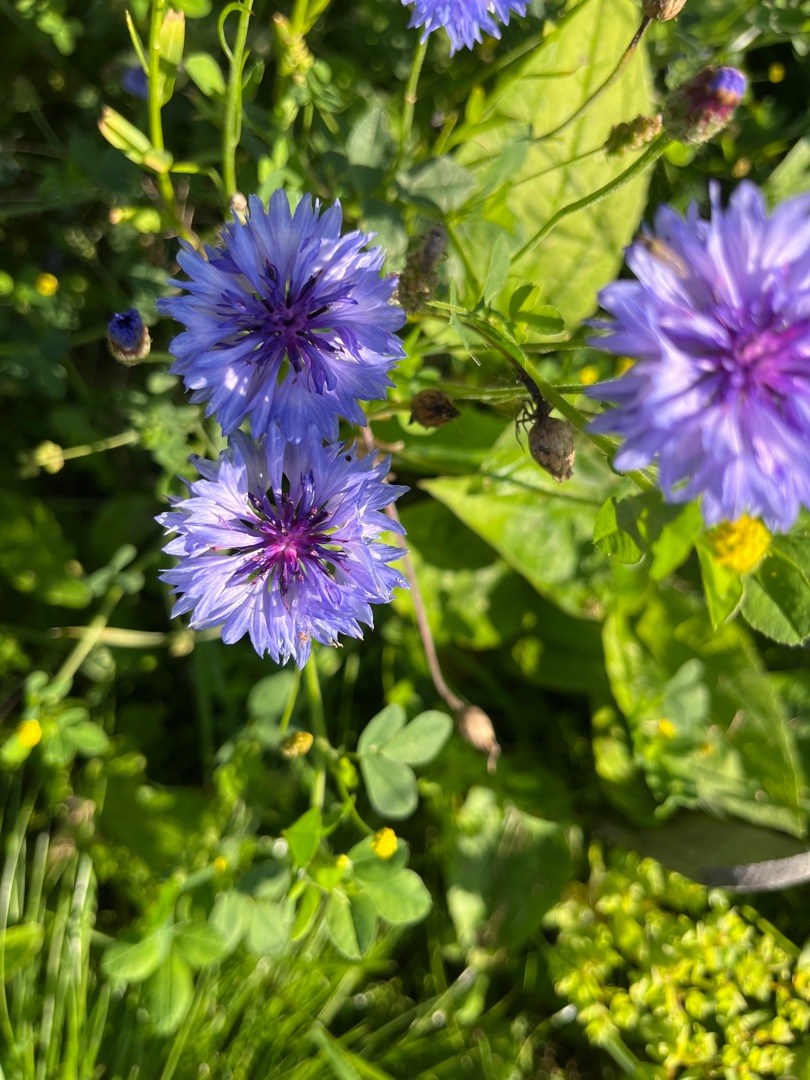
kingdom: Plantae
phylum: Tracheophyta
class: Magnoliopsida
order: Asterales
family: Asteraceae
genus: Centaurea
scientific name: Centaurea cyanus
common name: Kornblomst
